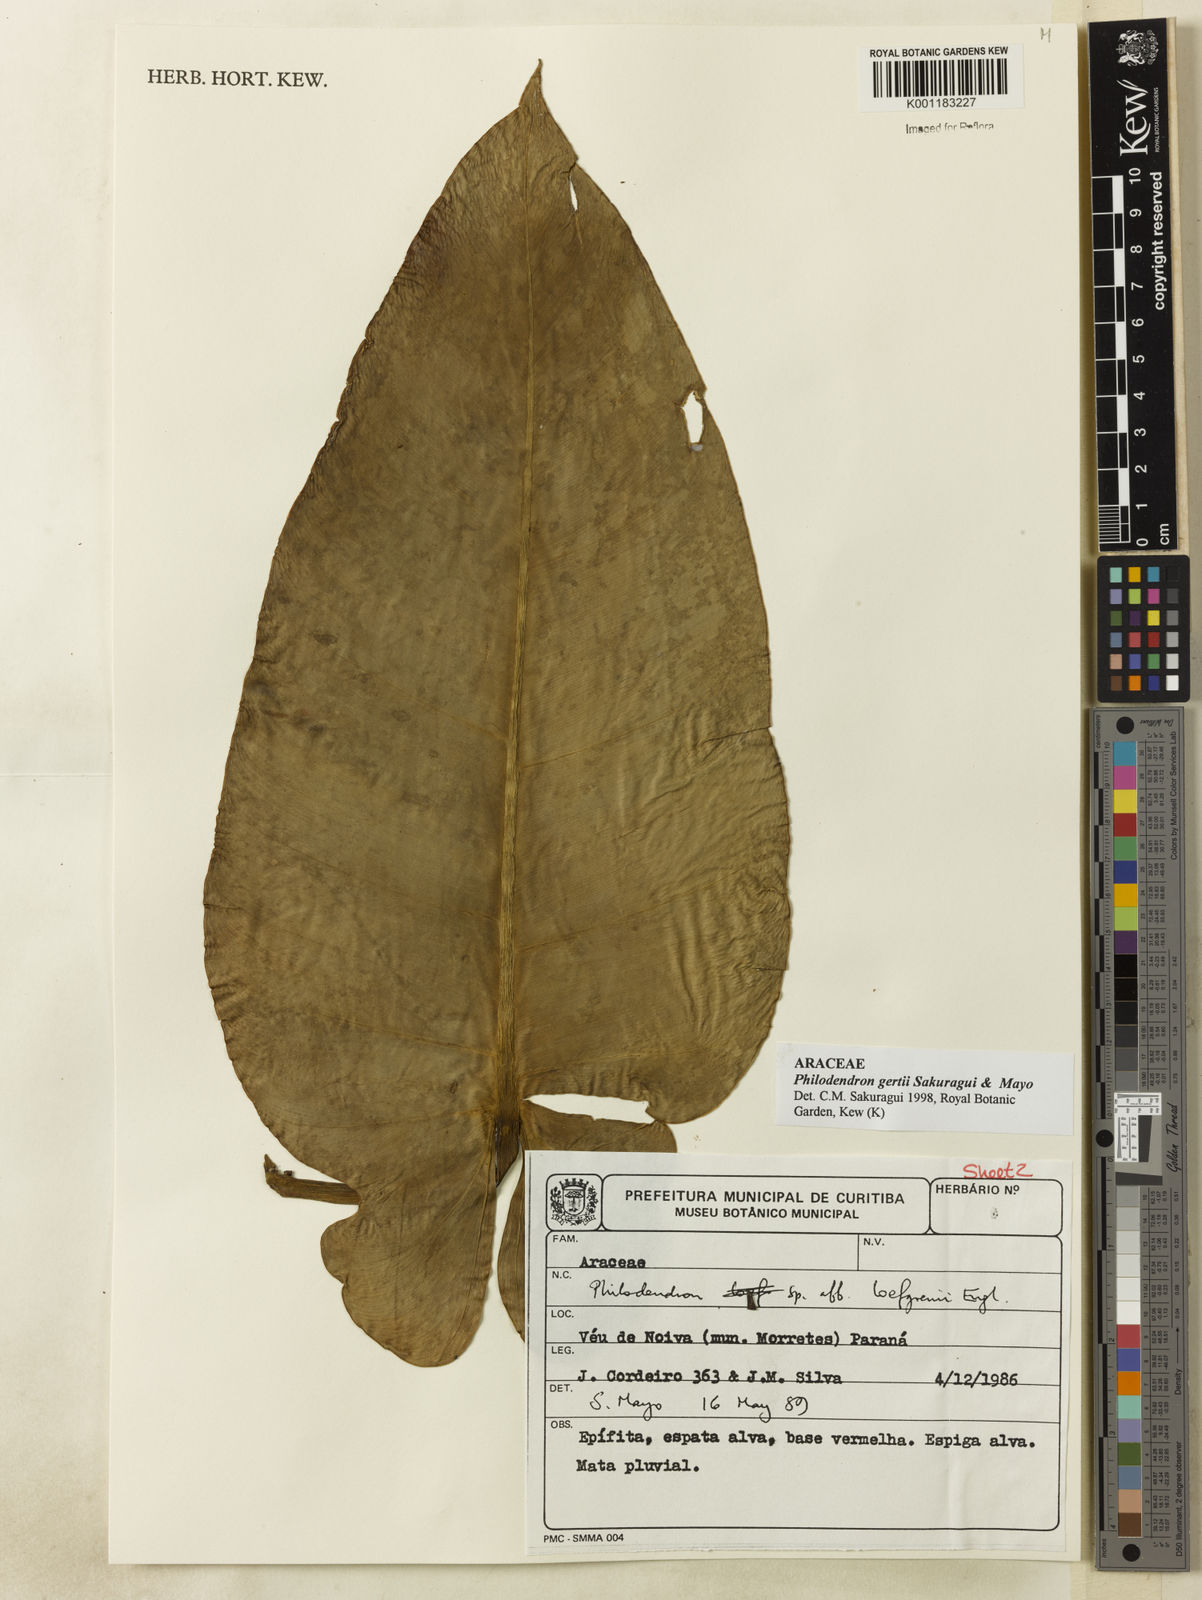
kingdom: Plantae
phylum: Tracheophyta
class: Liliopsida
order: Alismatales
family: Araceae
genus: Philodendron
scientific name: Philodendron
